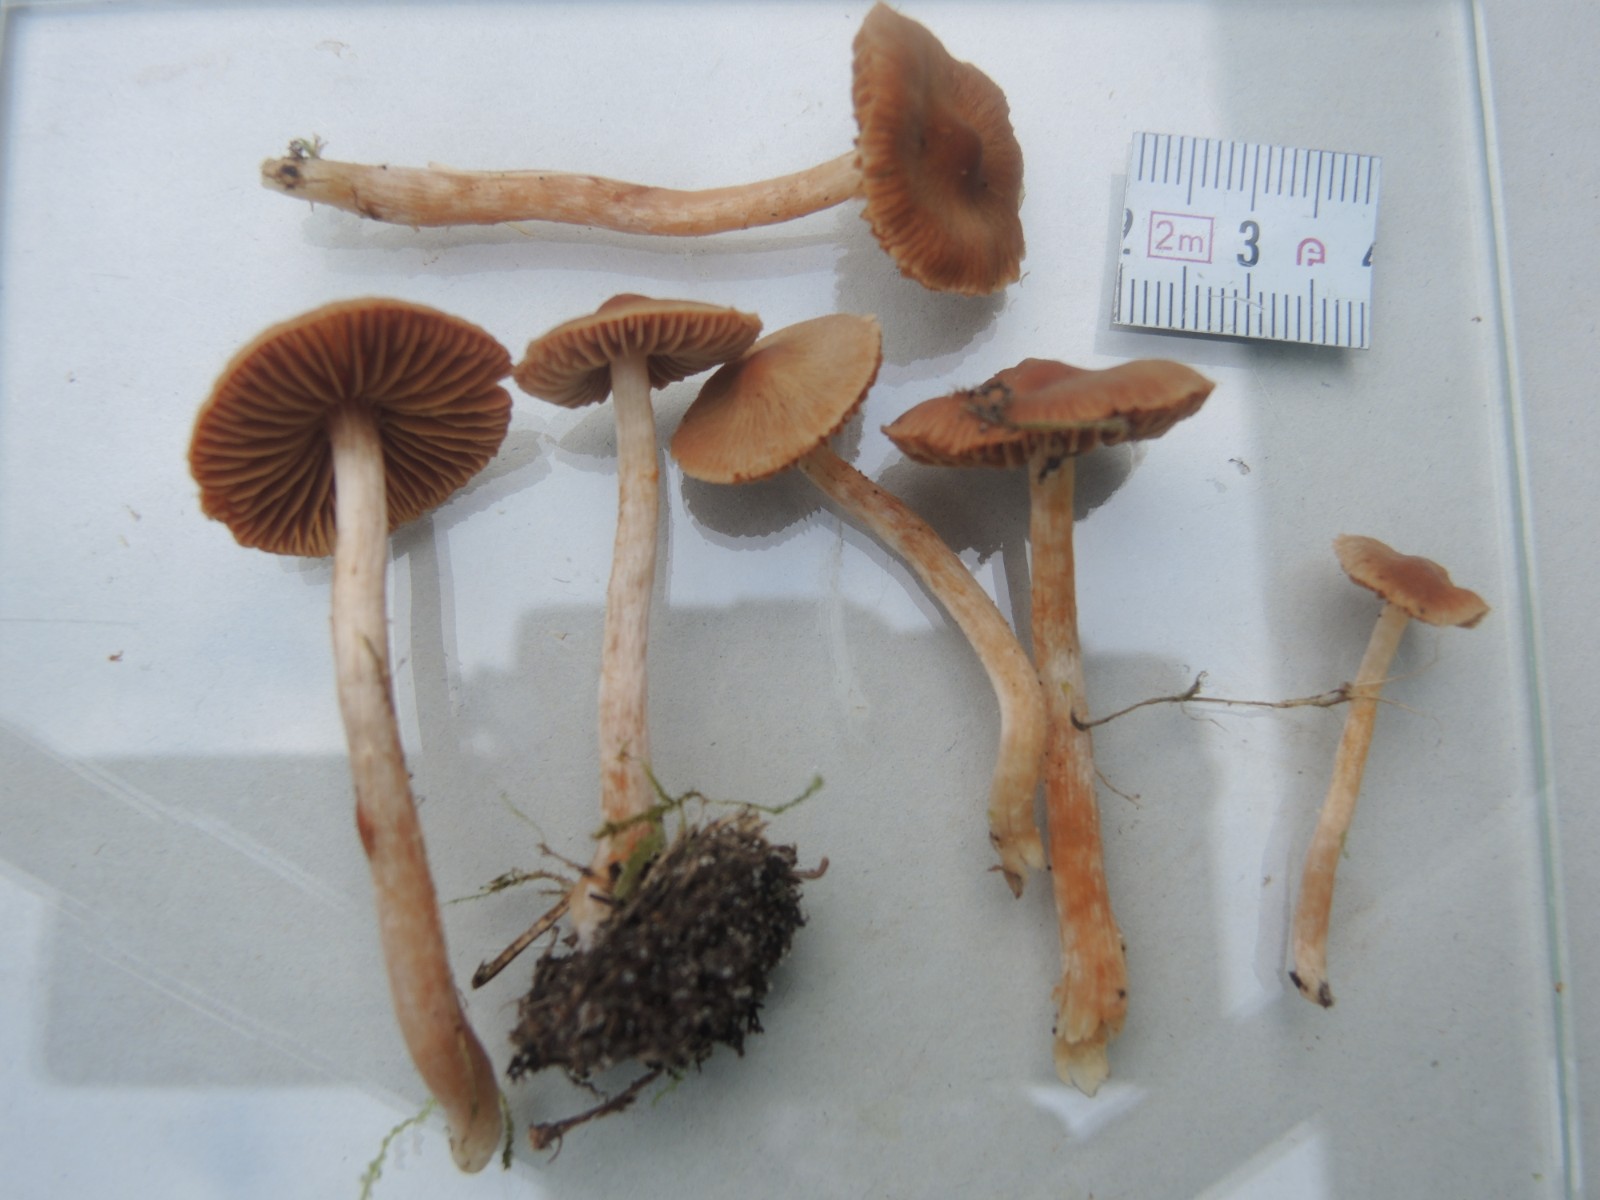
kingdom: Fungi
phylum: Basidiomycota
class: Agaricomycetes
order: Agaricales
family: Cortinariaceae
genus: Cortinarius
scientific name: Cortinarius
